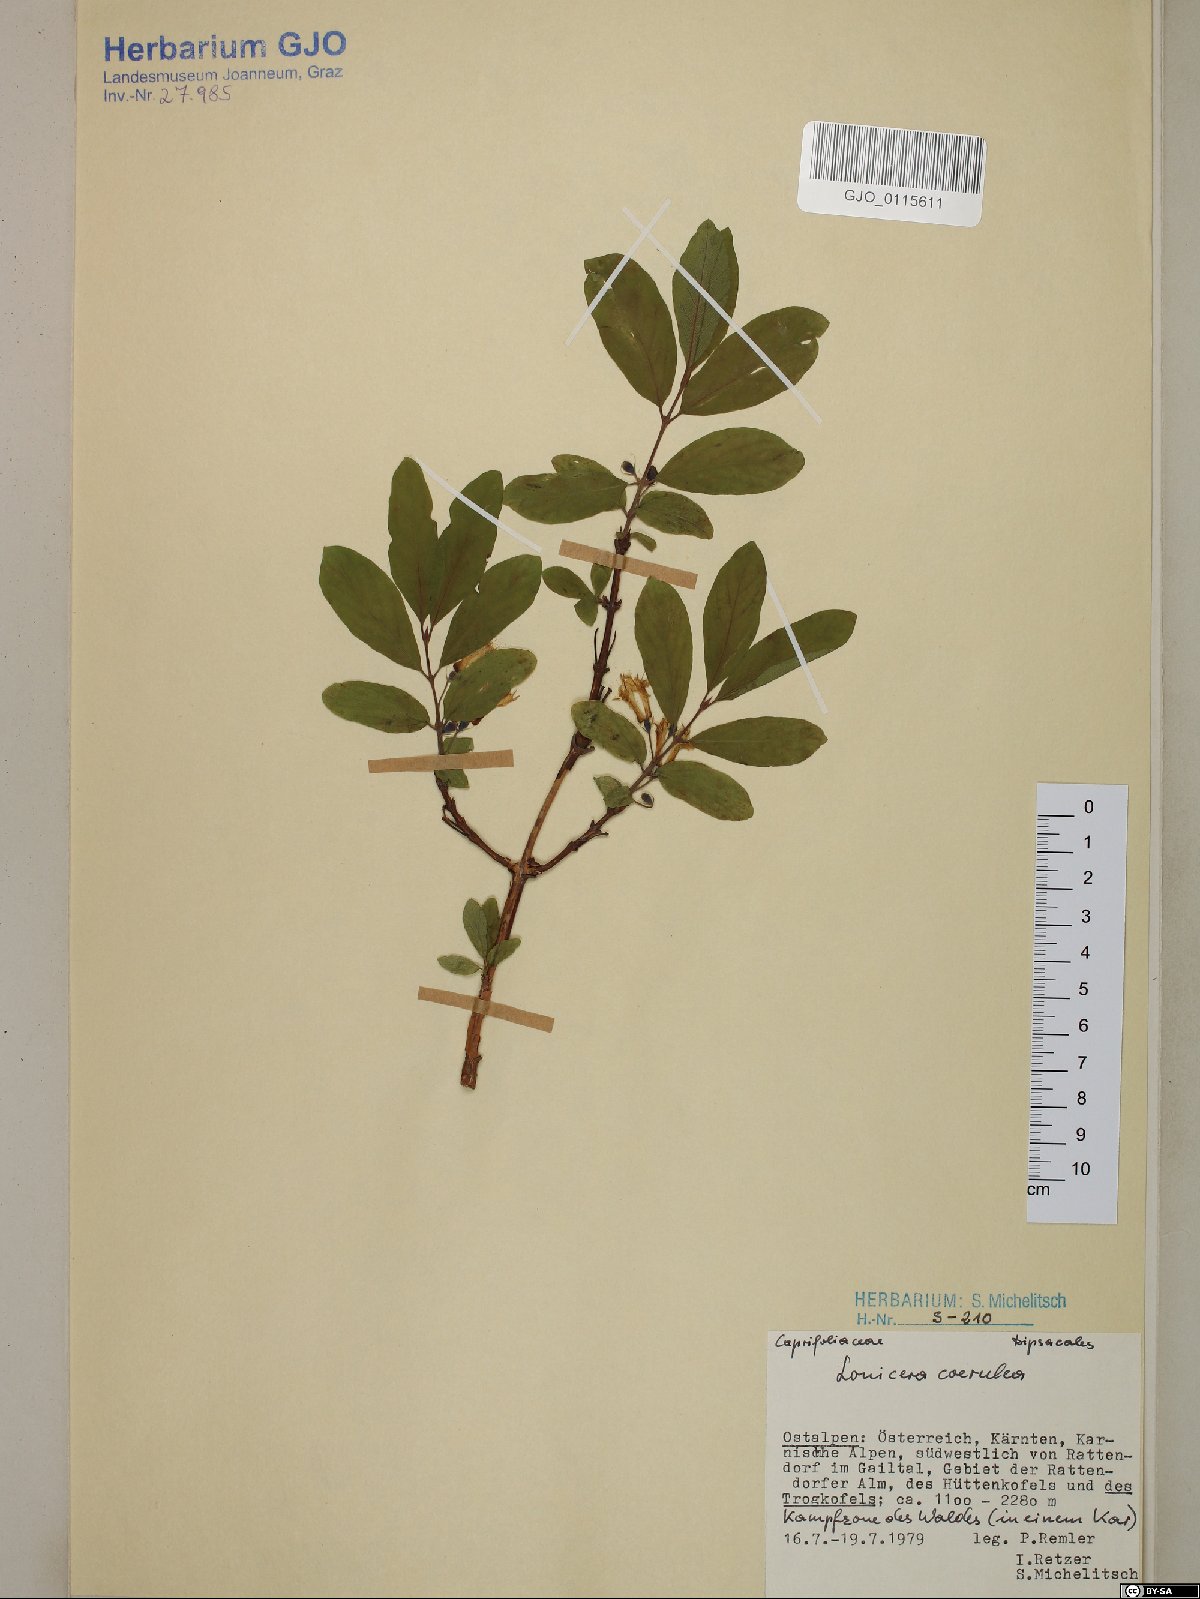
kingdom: Plantae
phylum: Tracheophyta
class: Magnoliopsida
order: Dipsacales
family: Caprifoliaceae
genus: Lonicera
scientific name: Lonicera caerulea
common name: Blue honeysuckle
